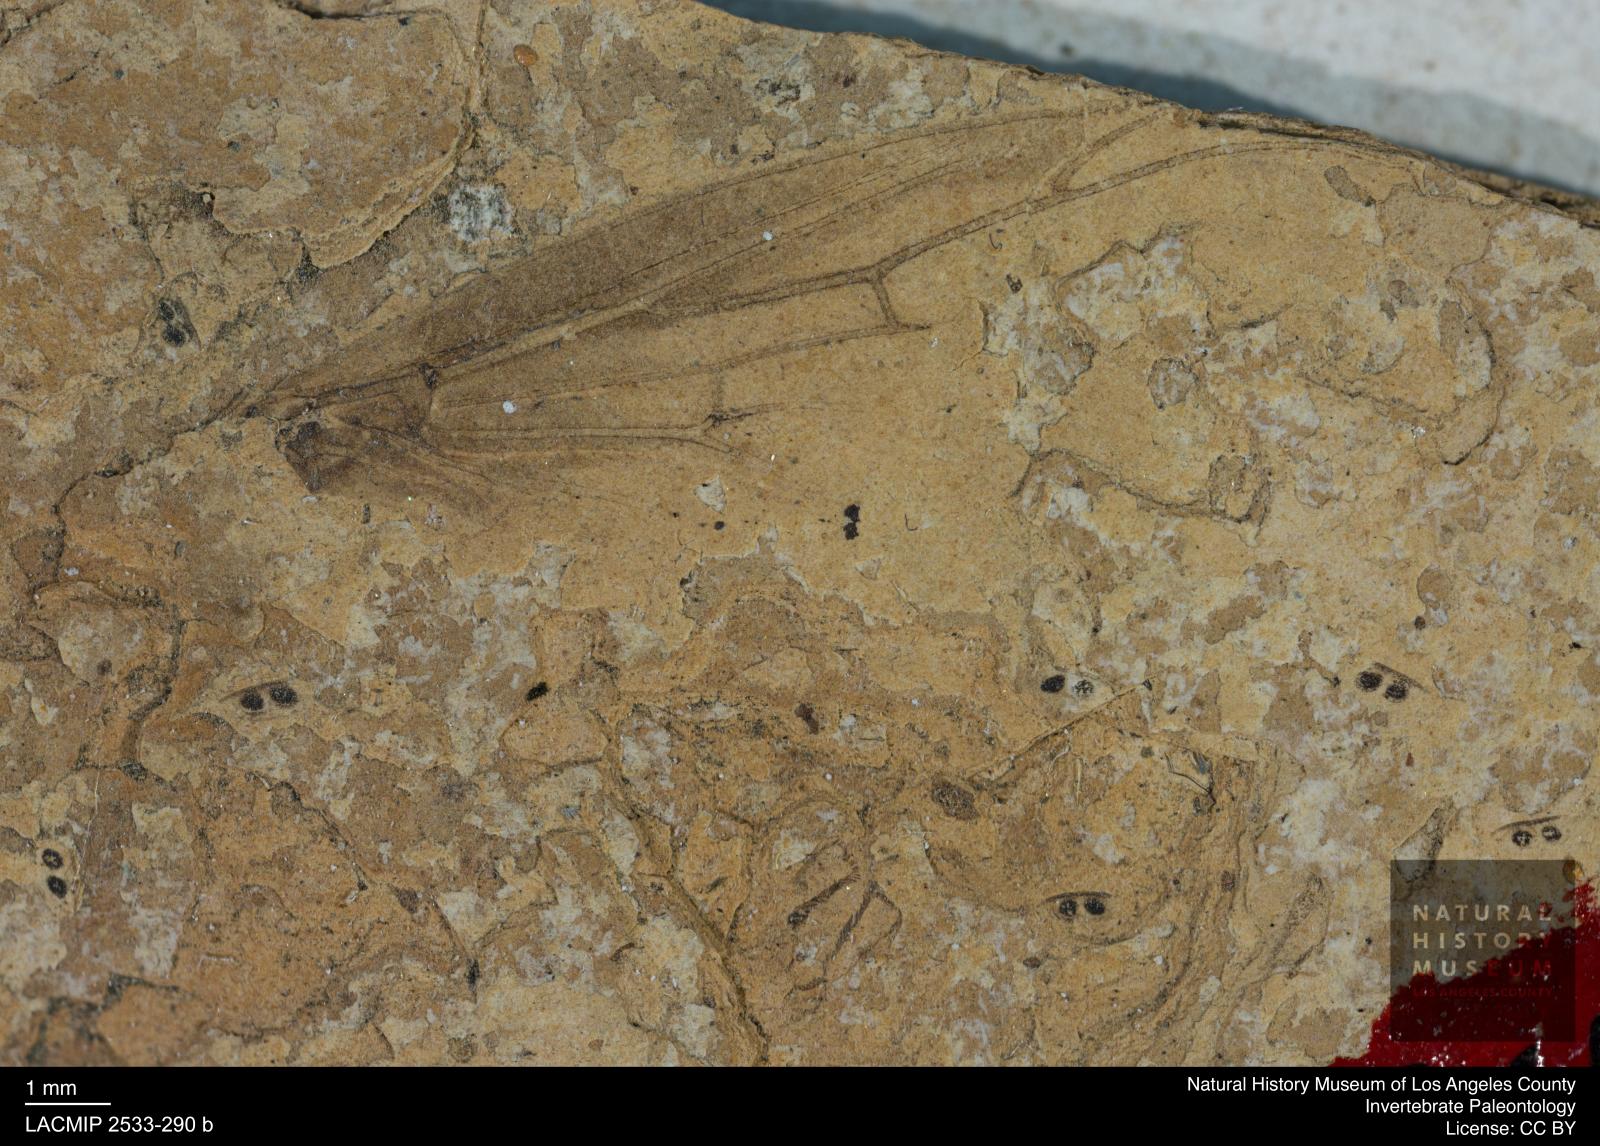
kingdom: Animalia
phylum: Arthropoda
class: Insecta
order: Diptera
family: Bibionidae
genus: Plecia
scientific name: Plecia dubia
